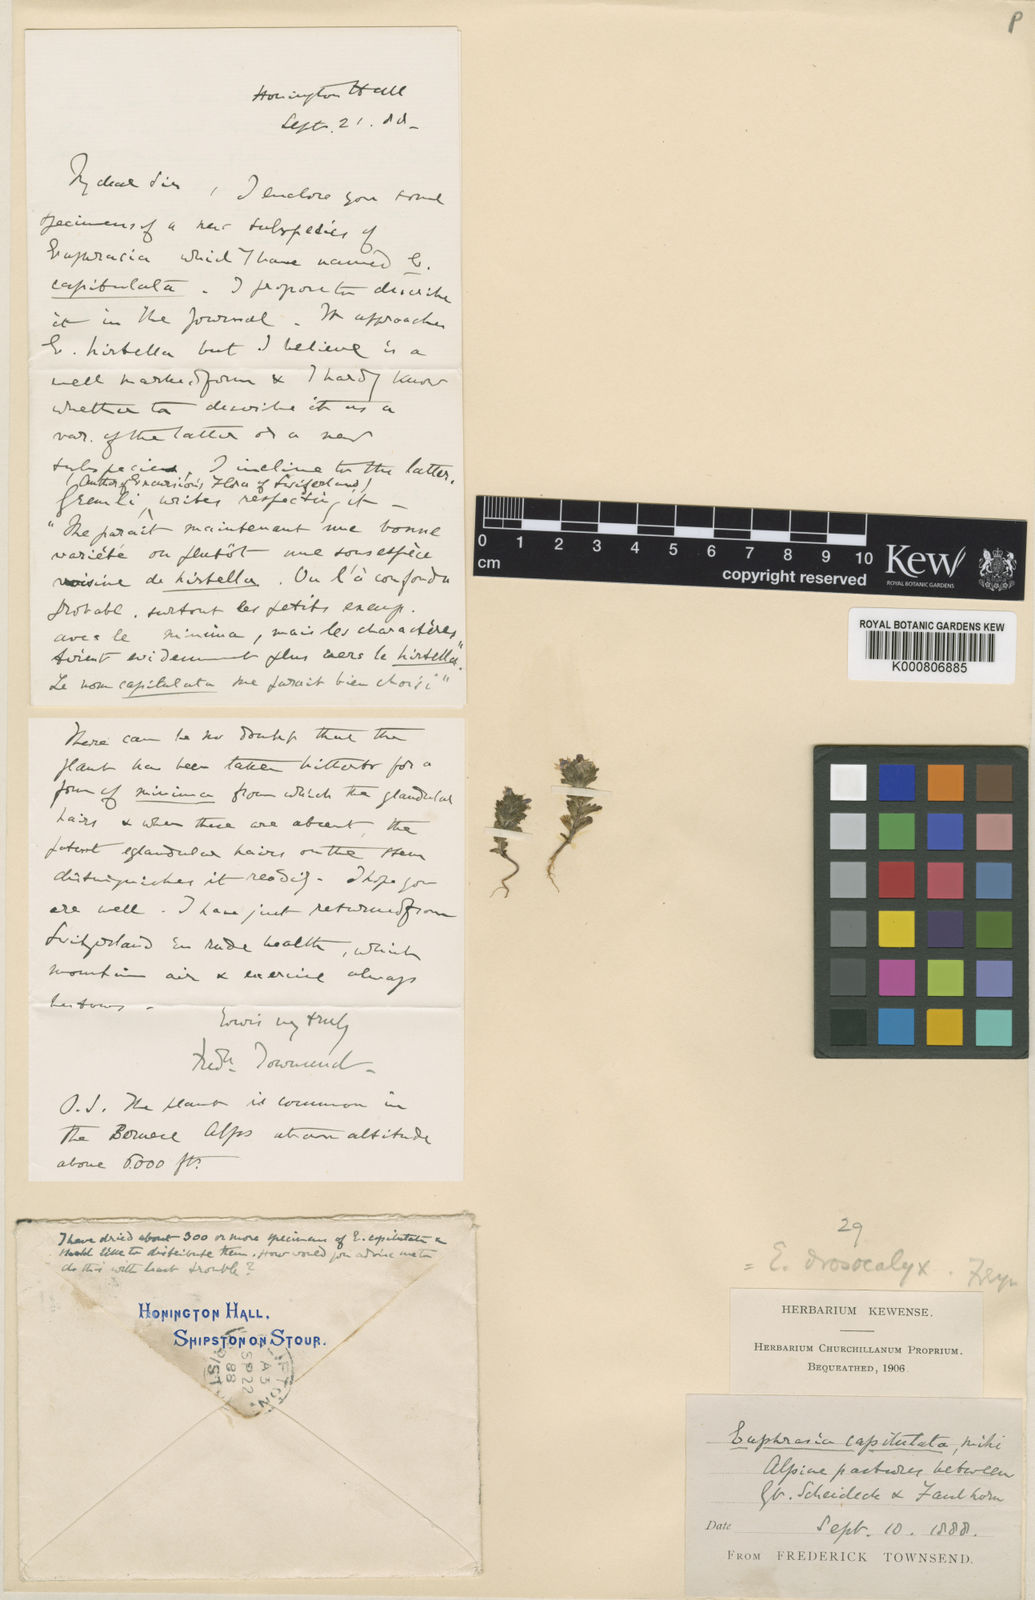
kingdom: Plantae
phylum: Tracheophyta
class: Magnoliopsida
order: Lamiales
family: Orobanchaceae
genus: Euphrasia
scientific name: Euphrasia drosocalyx
